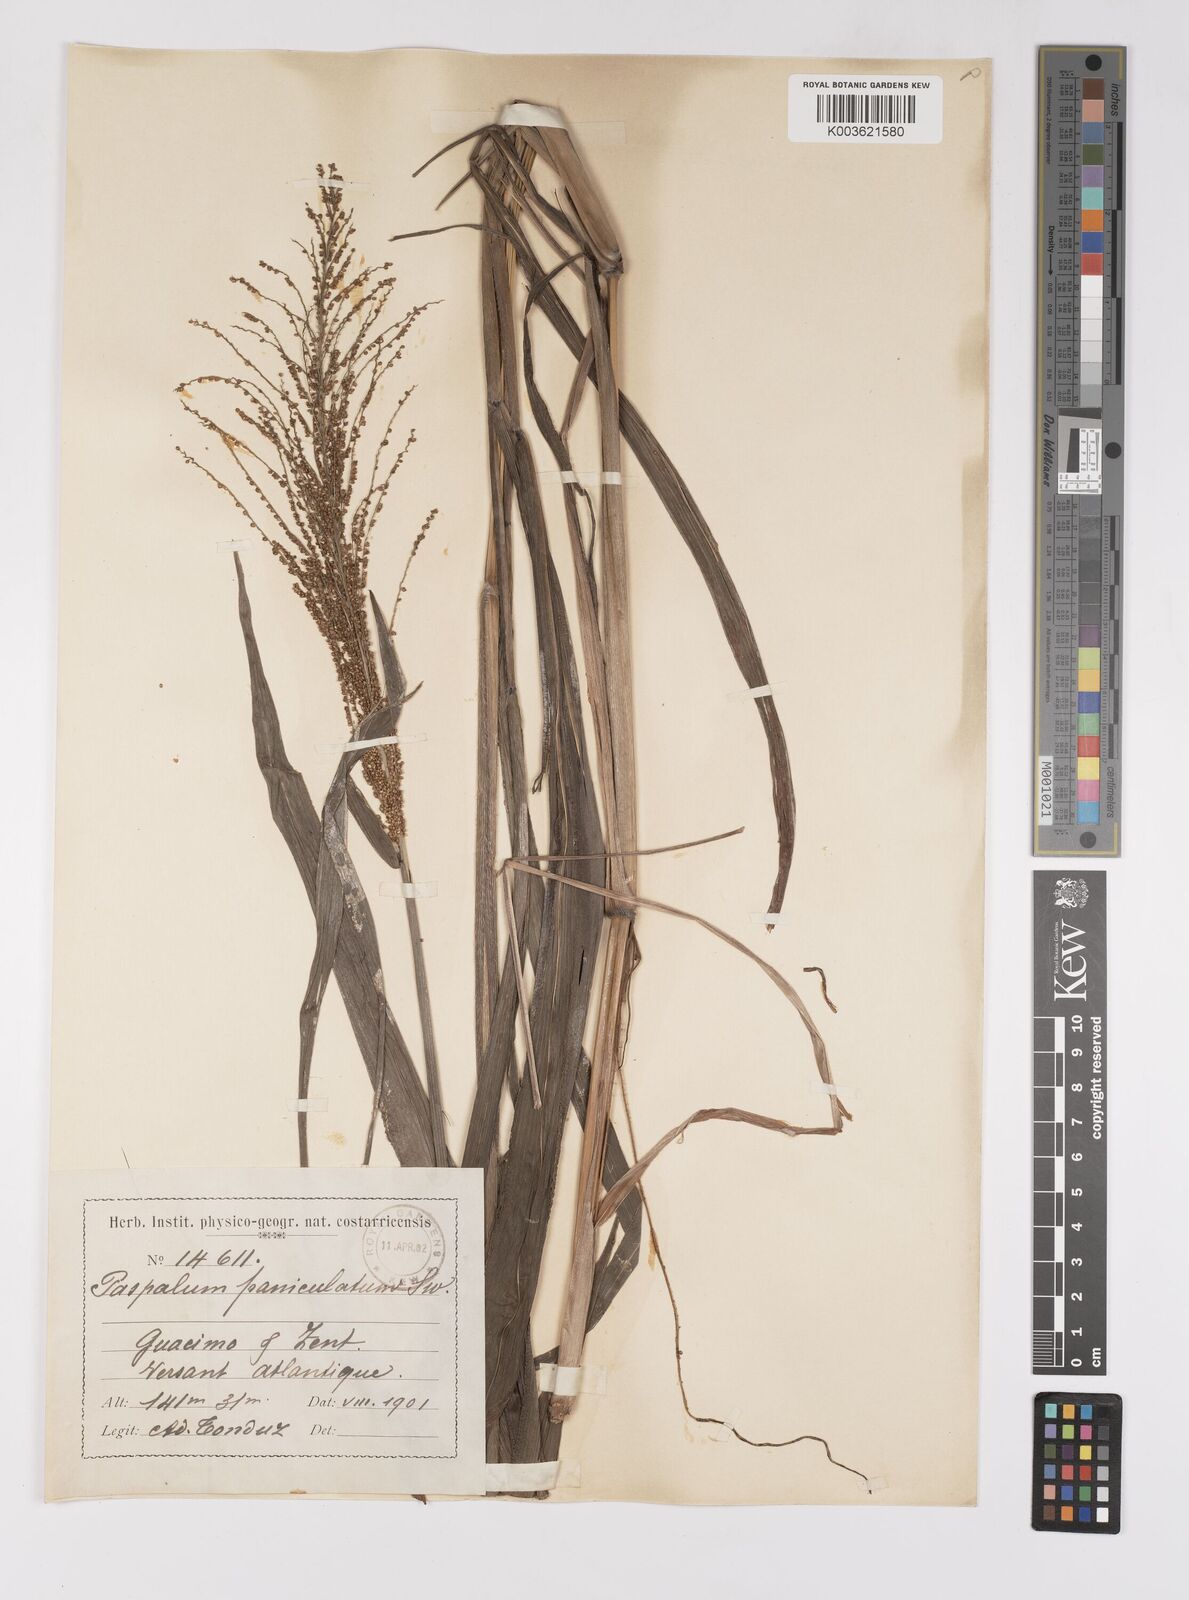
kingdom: Plantae
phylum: Tracheophyta
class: Liliopsida
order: Poales
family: Poaceae
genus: Paspalum
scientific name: Paspalum paniculatum
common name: Arrocillo
